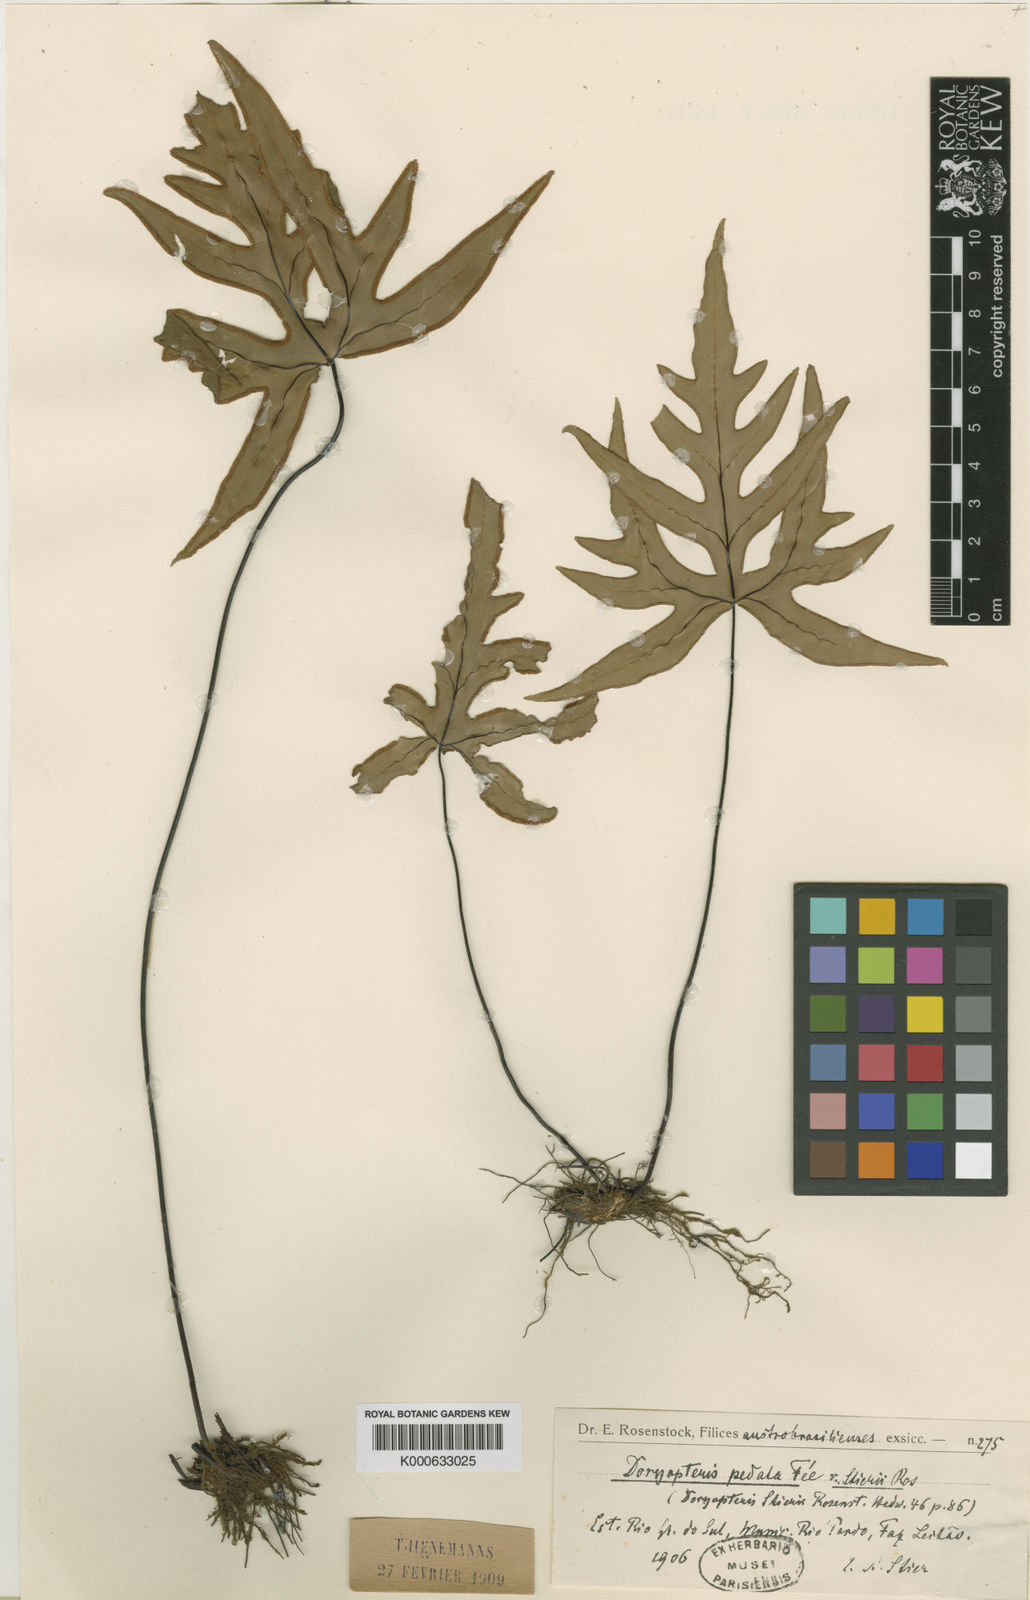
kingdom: Plantae
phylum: Tracheophyta
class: Polypodiopsida
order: Polypodiales
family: Pteridaceae
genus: Doryopteris
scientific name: Doryopteris
